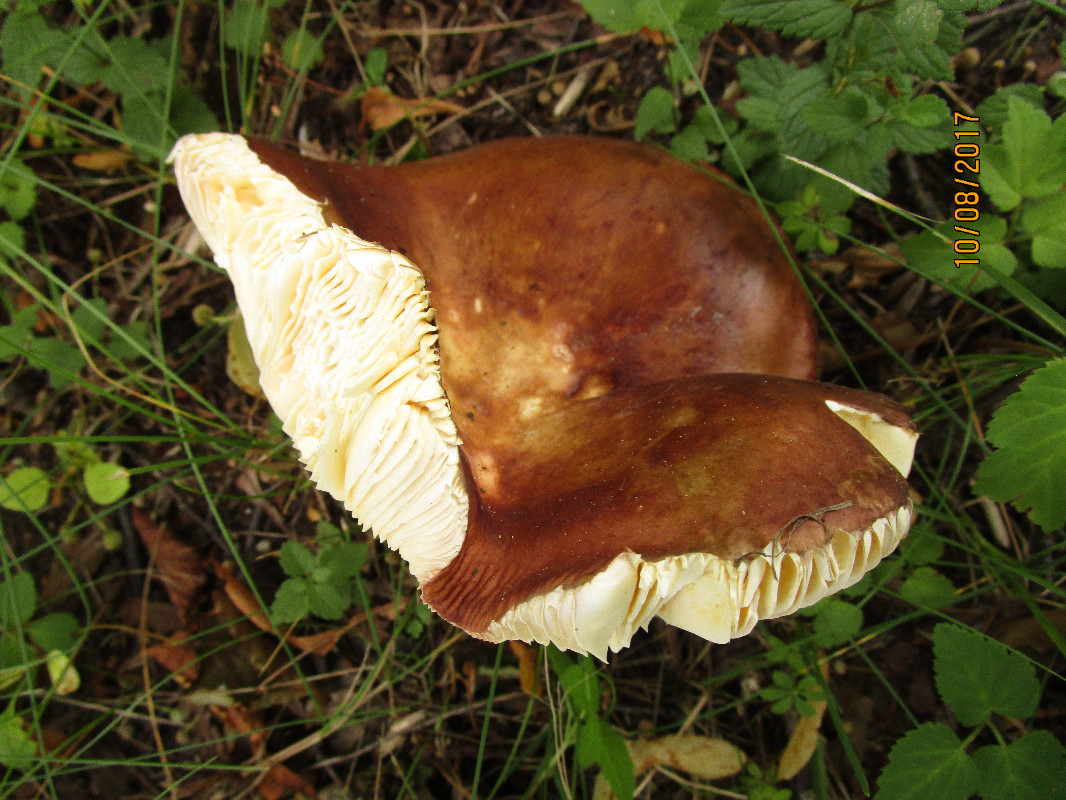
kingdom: Fungi
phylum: Basidiomycota
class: Agaricomycetes
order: Russulales
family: Russulaceae
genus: Russula
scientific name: Russula cuprea
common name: kanel-skørhat
